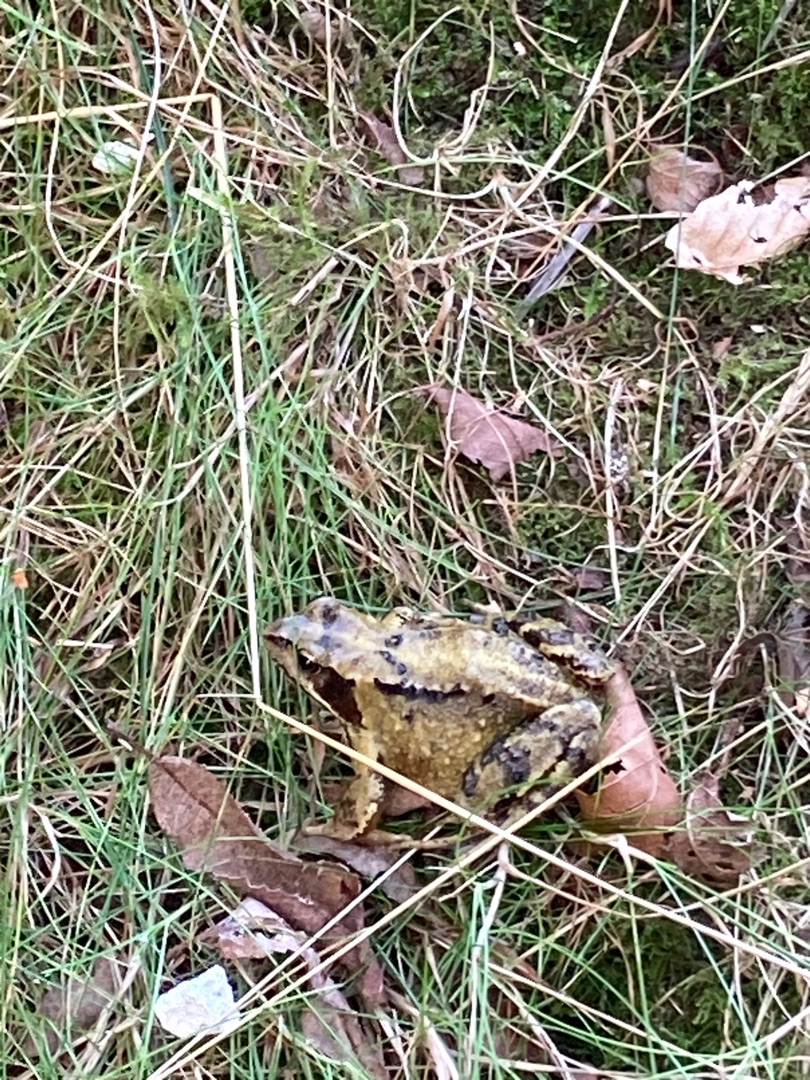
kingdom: Animalia
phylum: Chordata
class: Amphibia
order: Anura
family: Ranidae
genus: Rana
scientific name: Rana temporaria
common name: Butsnudet frø
